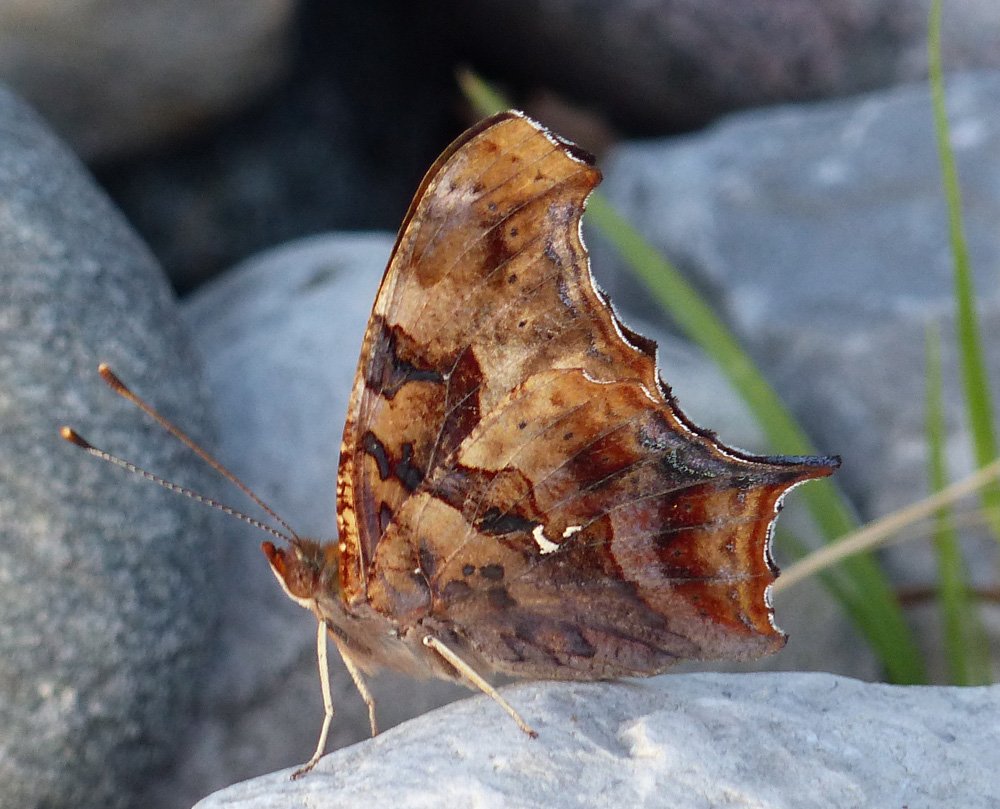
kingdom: Animalia
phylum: Arthropoda
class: Insecta
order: Lepidoptera
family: Nymphalidae
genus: Polygonia
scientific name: Polygonia interrogationis
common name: Question Mark
